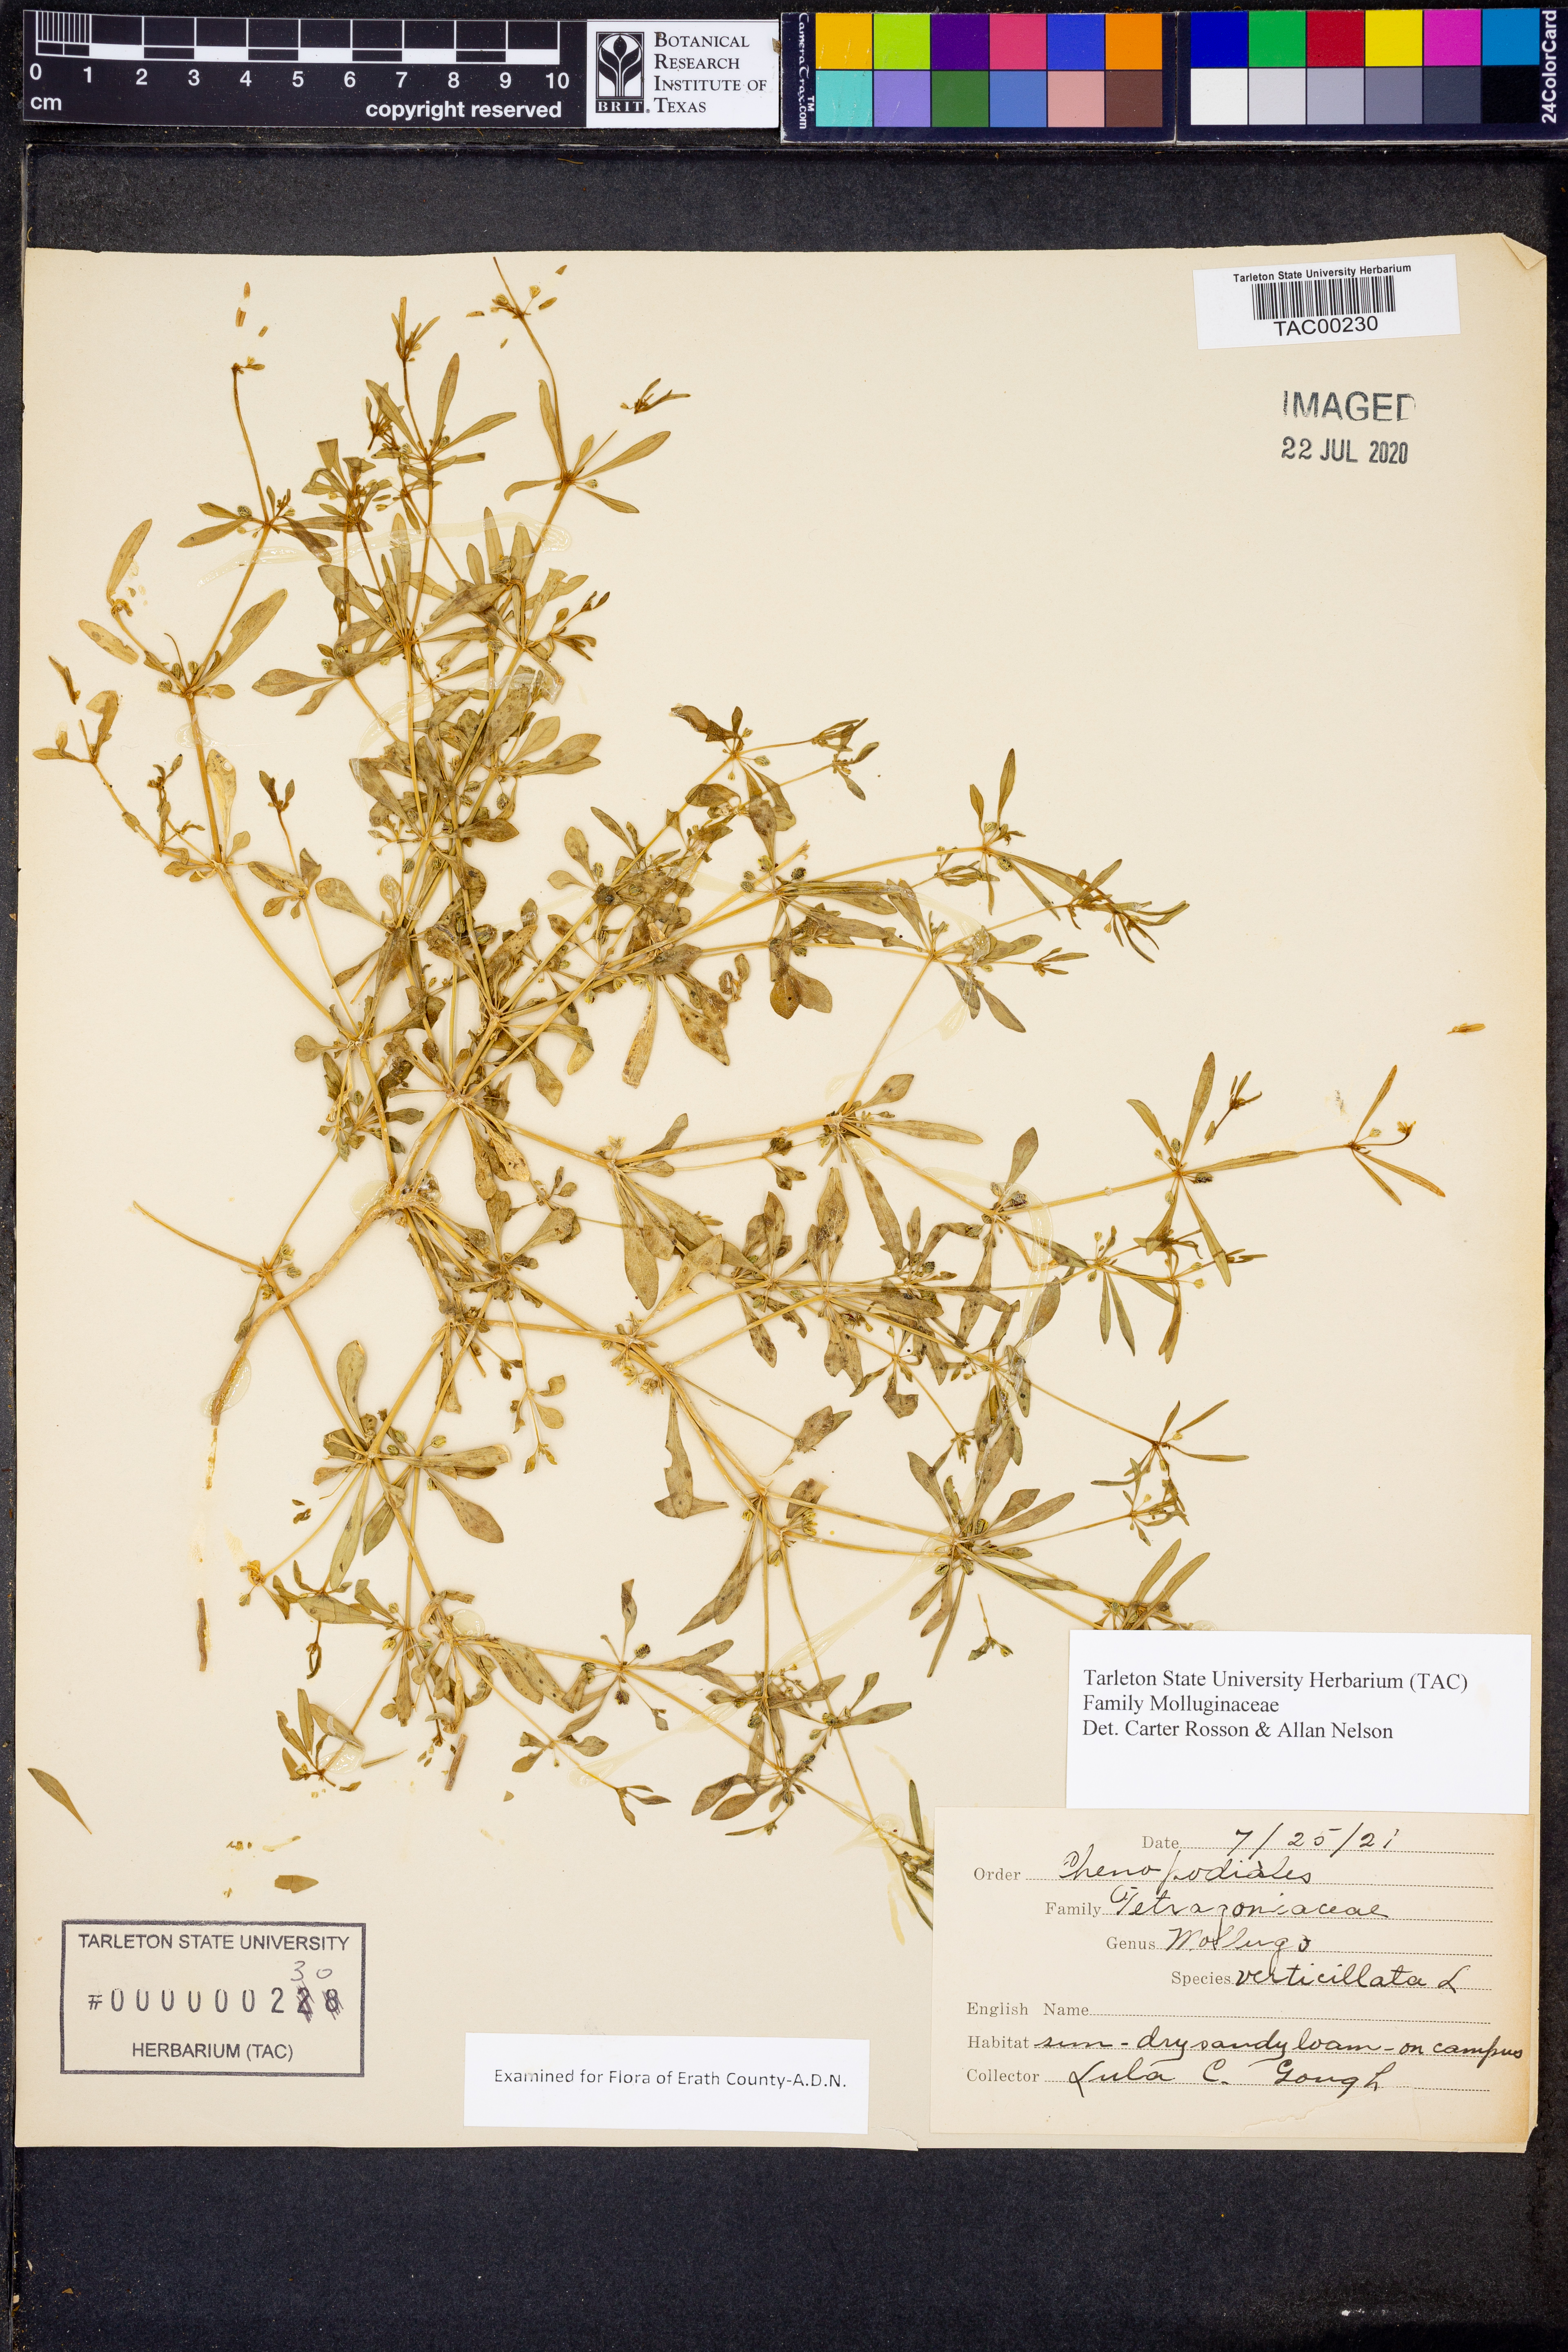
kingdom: Plantae
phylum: Tracheophyta
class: Magnoliopsida
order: Caryophyllales
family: Molluginaceae
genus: Mollugo
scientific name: Mollugo verticillata
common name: Green carpetweed
